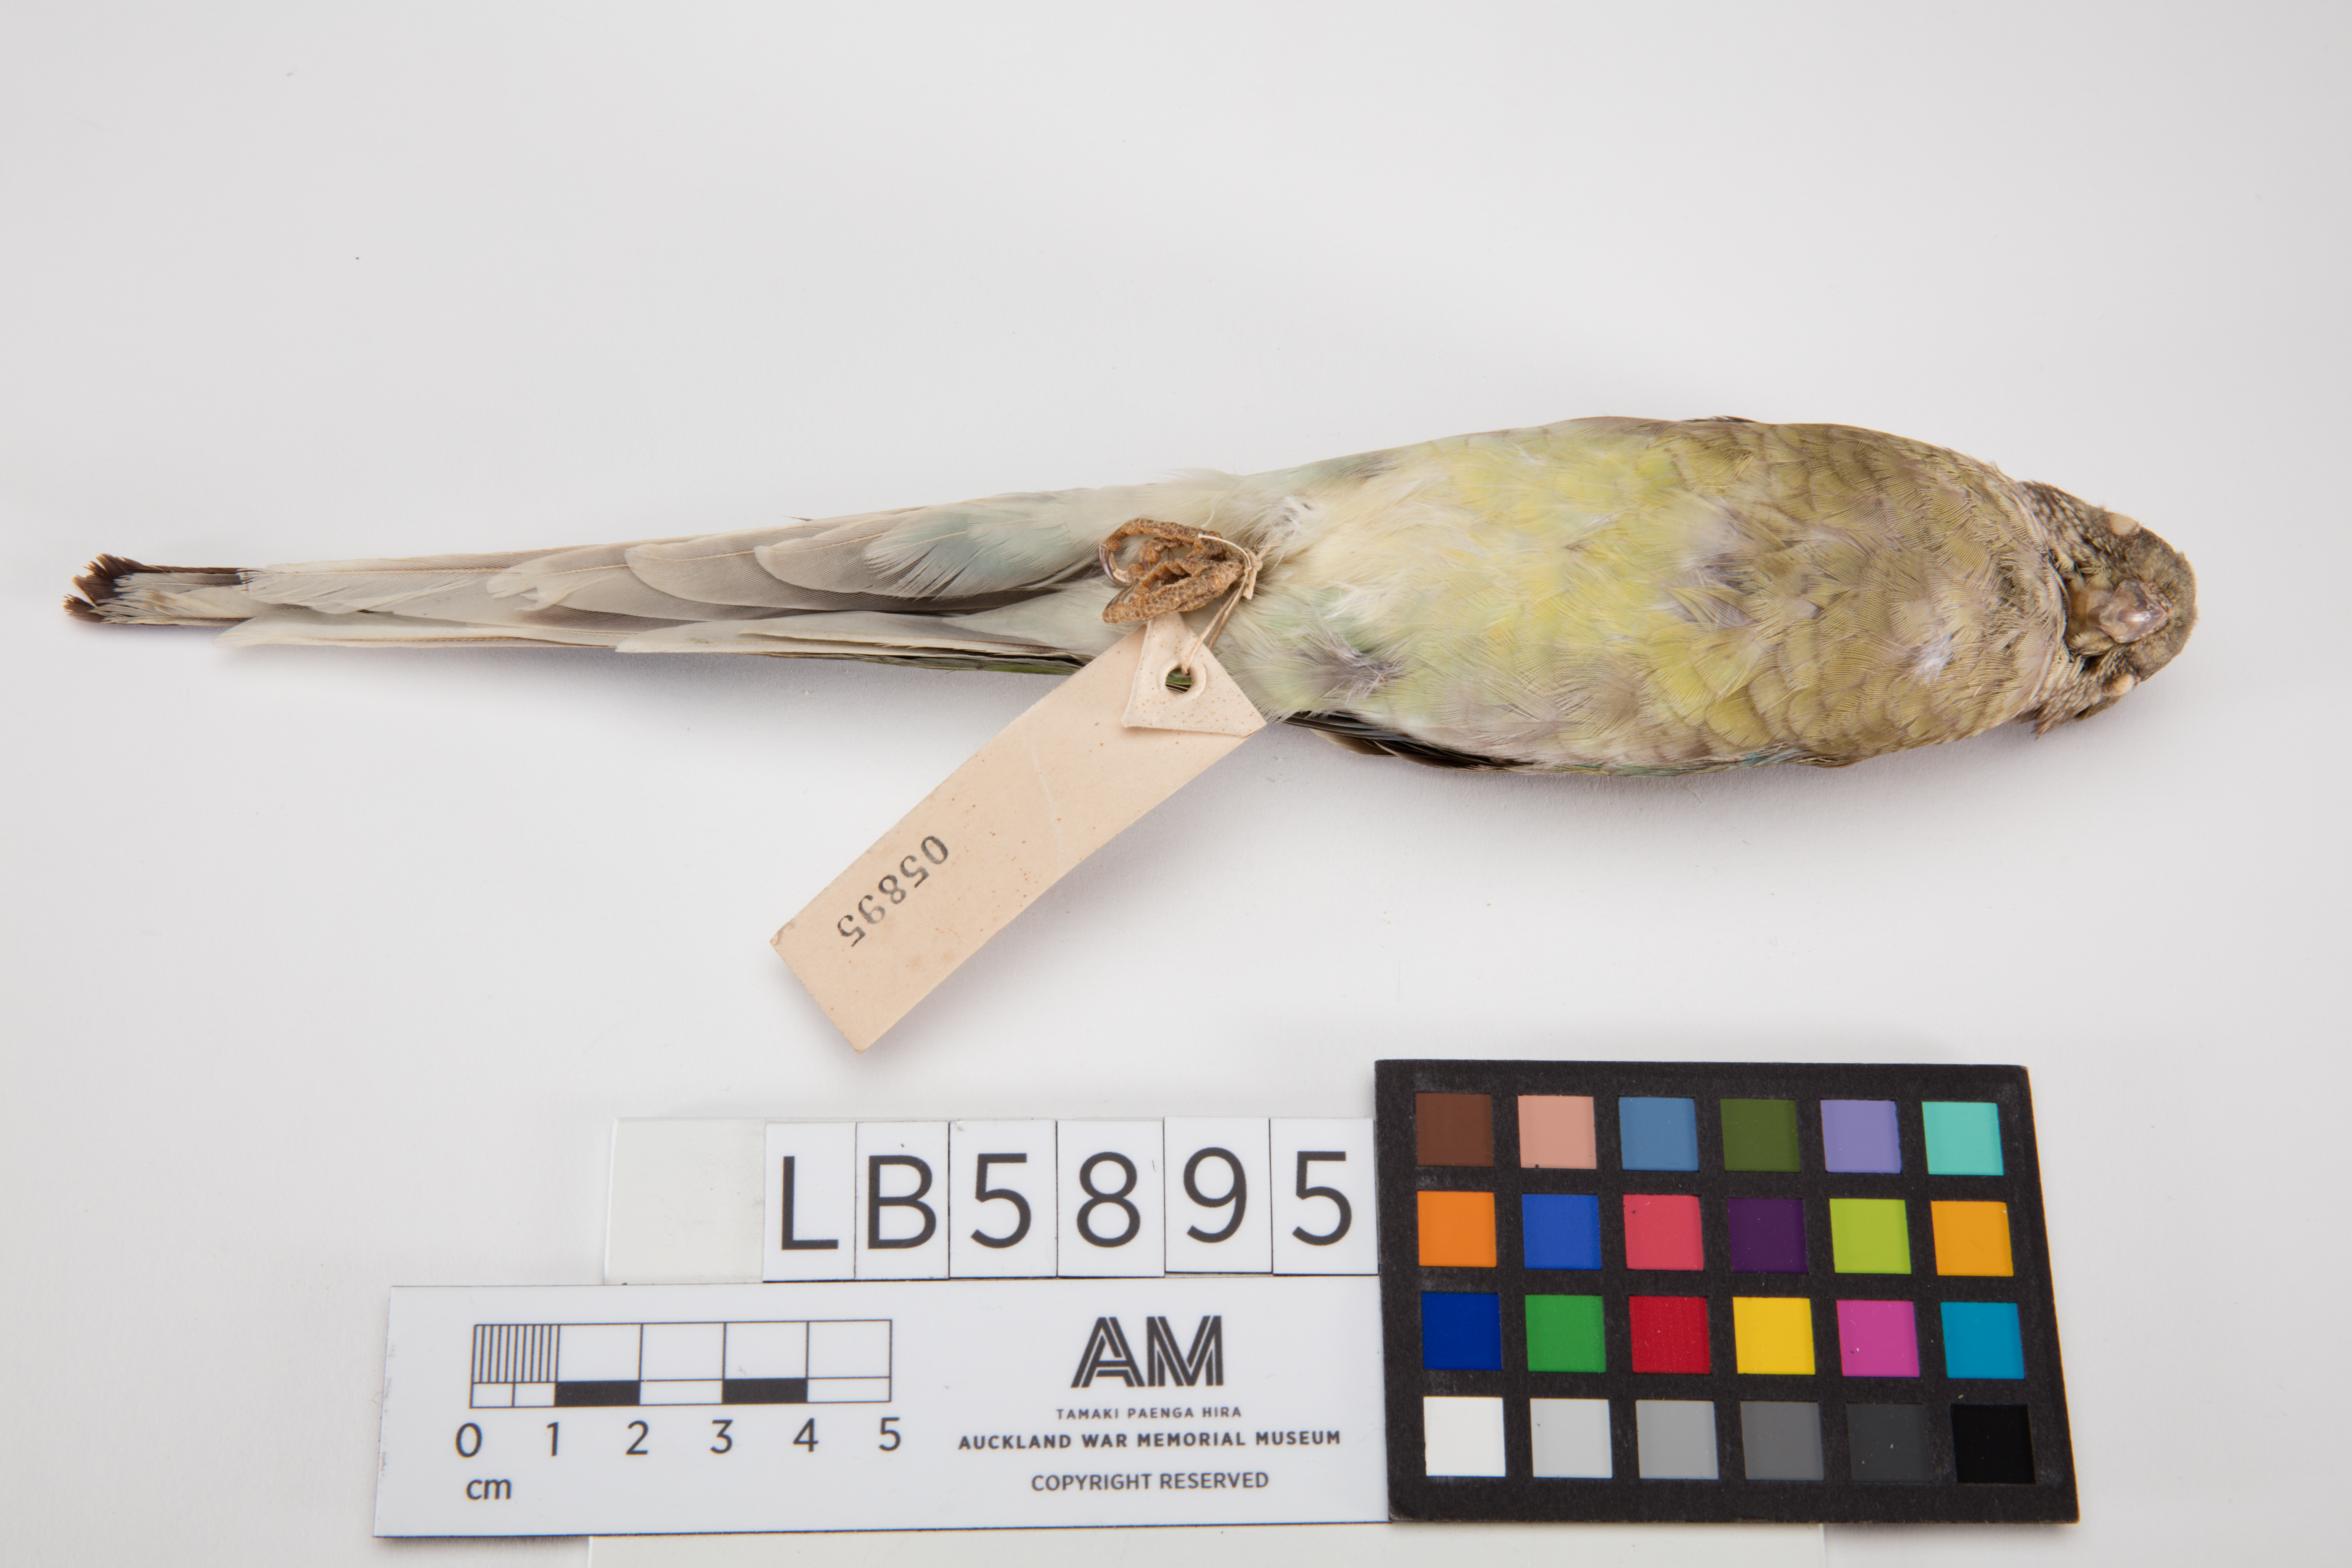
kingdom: Animalia
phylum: Chordata
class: Aves
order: Psittaciformes
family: Psittacidae
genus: Psephotus
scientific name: Psephotus haematonotus
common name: Red-rumped parrot
